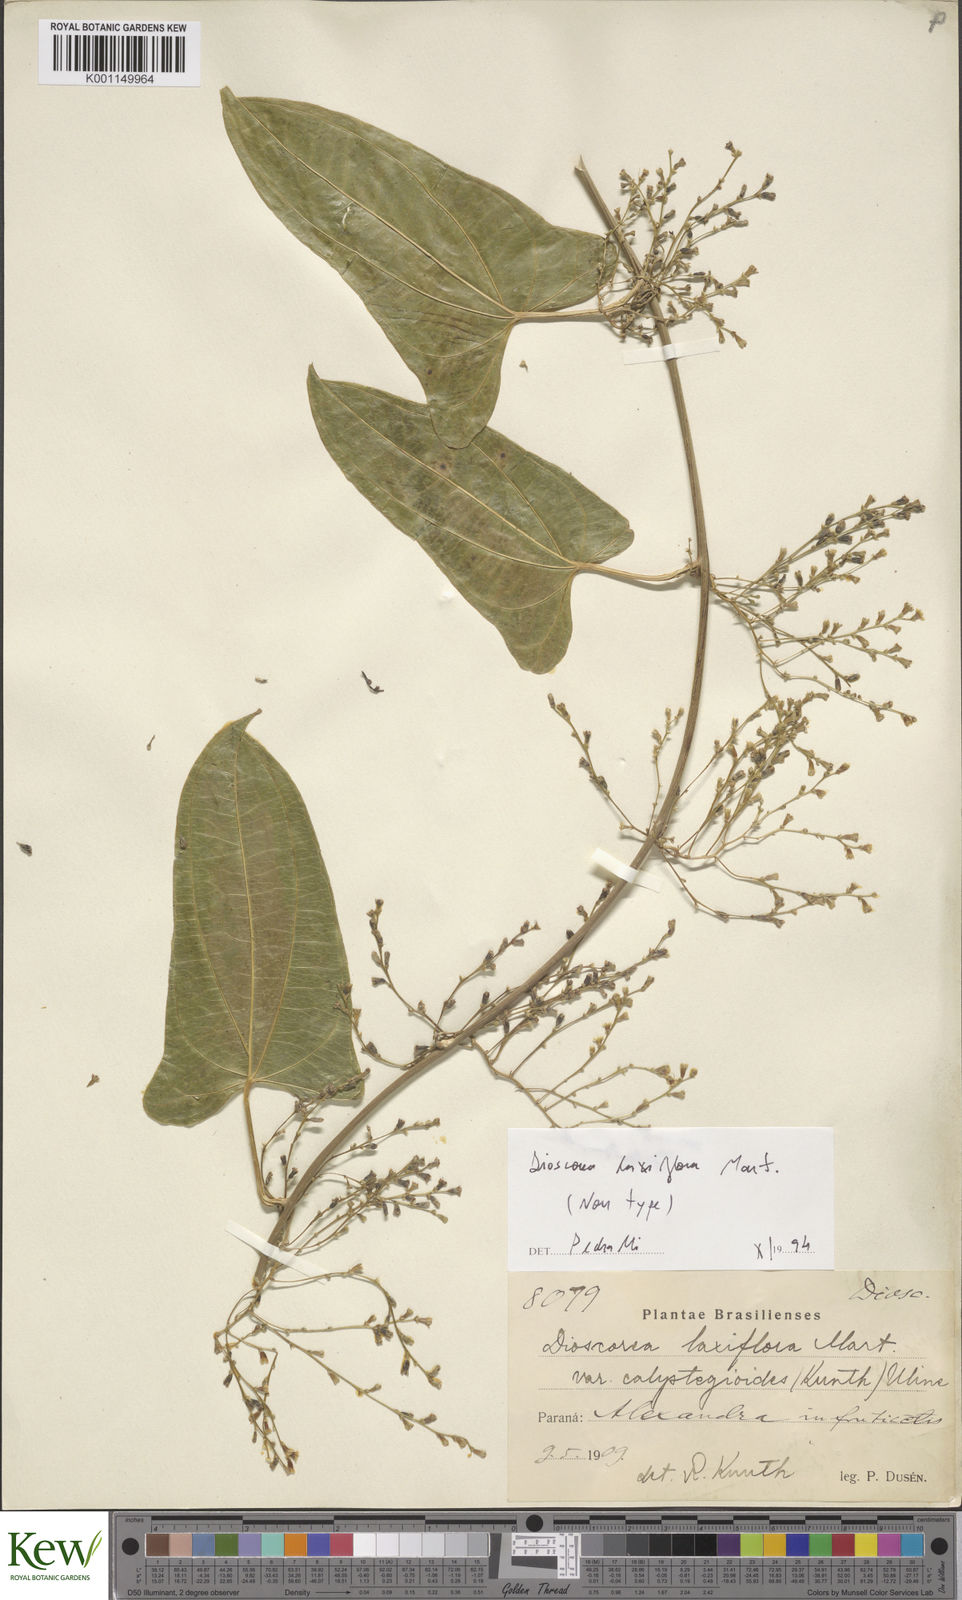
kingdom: Plantae
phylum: Tracheophyta
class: Liliopsida
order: Dioscoreales
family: Dioscoreaceae
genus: Dioscorea
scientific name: Dioscorea laxiflora
